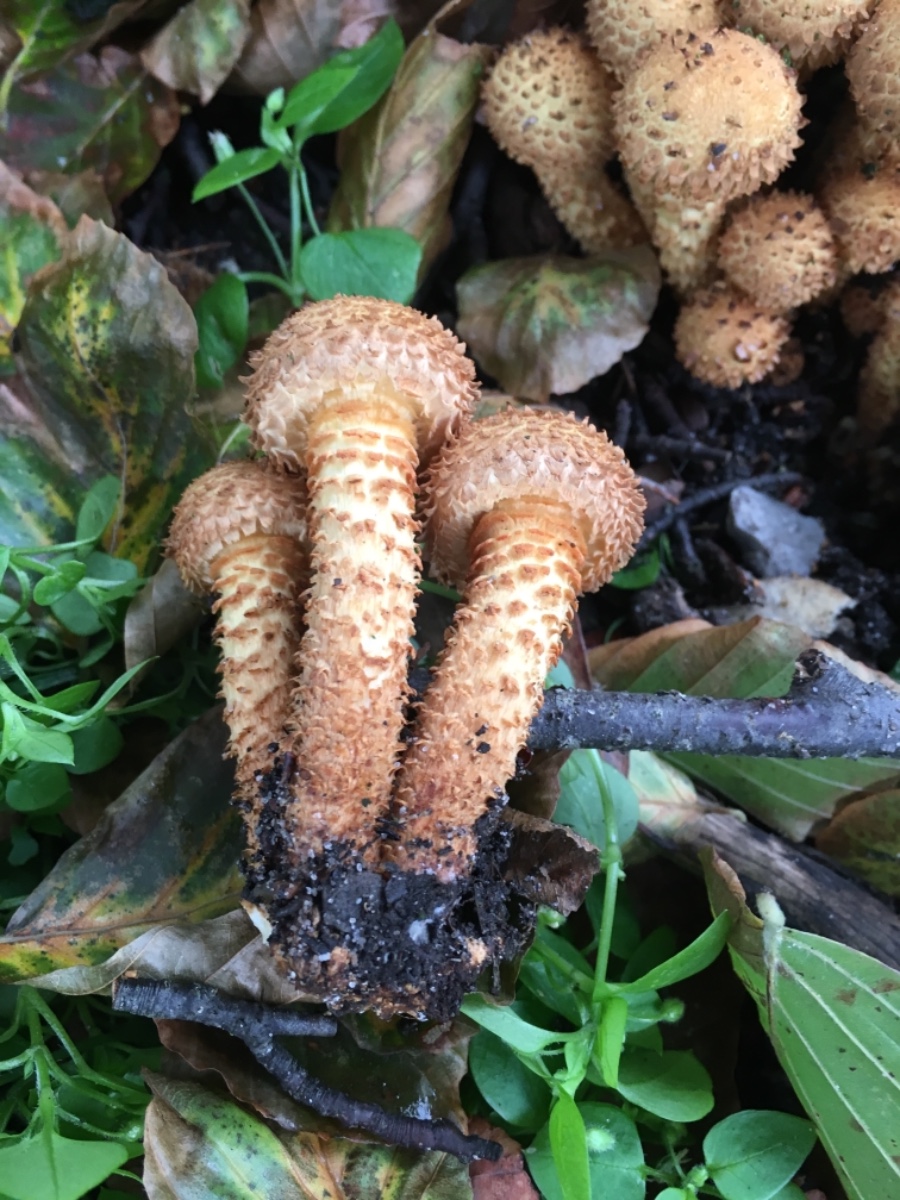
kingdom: Fungi
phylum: Basidiomycota
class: Agaricomycetes
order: Agaricales
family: Strophariaceae
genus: Pholiota
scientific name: Pholiota squarrosa
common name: krumskællet skælhat
